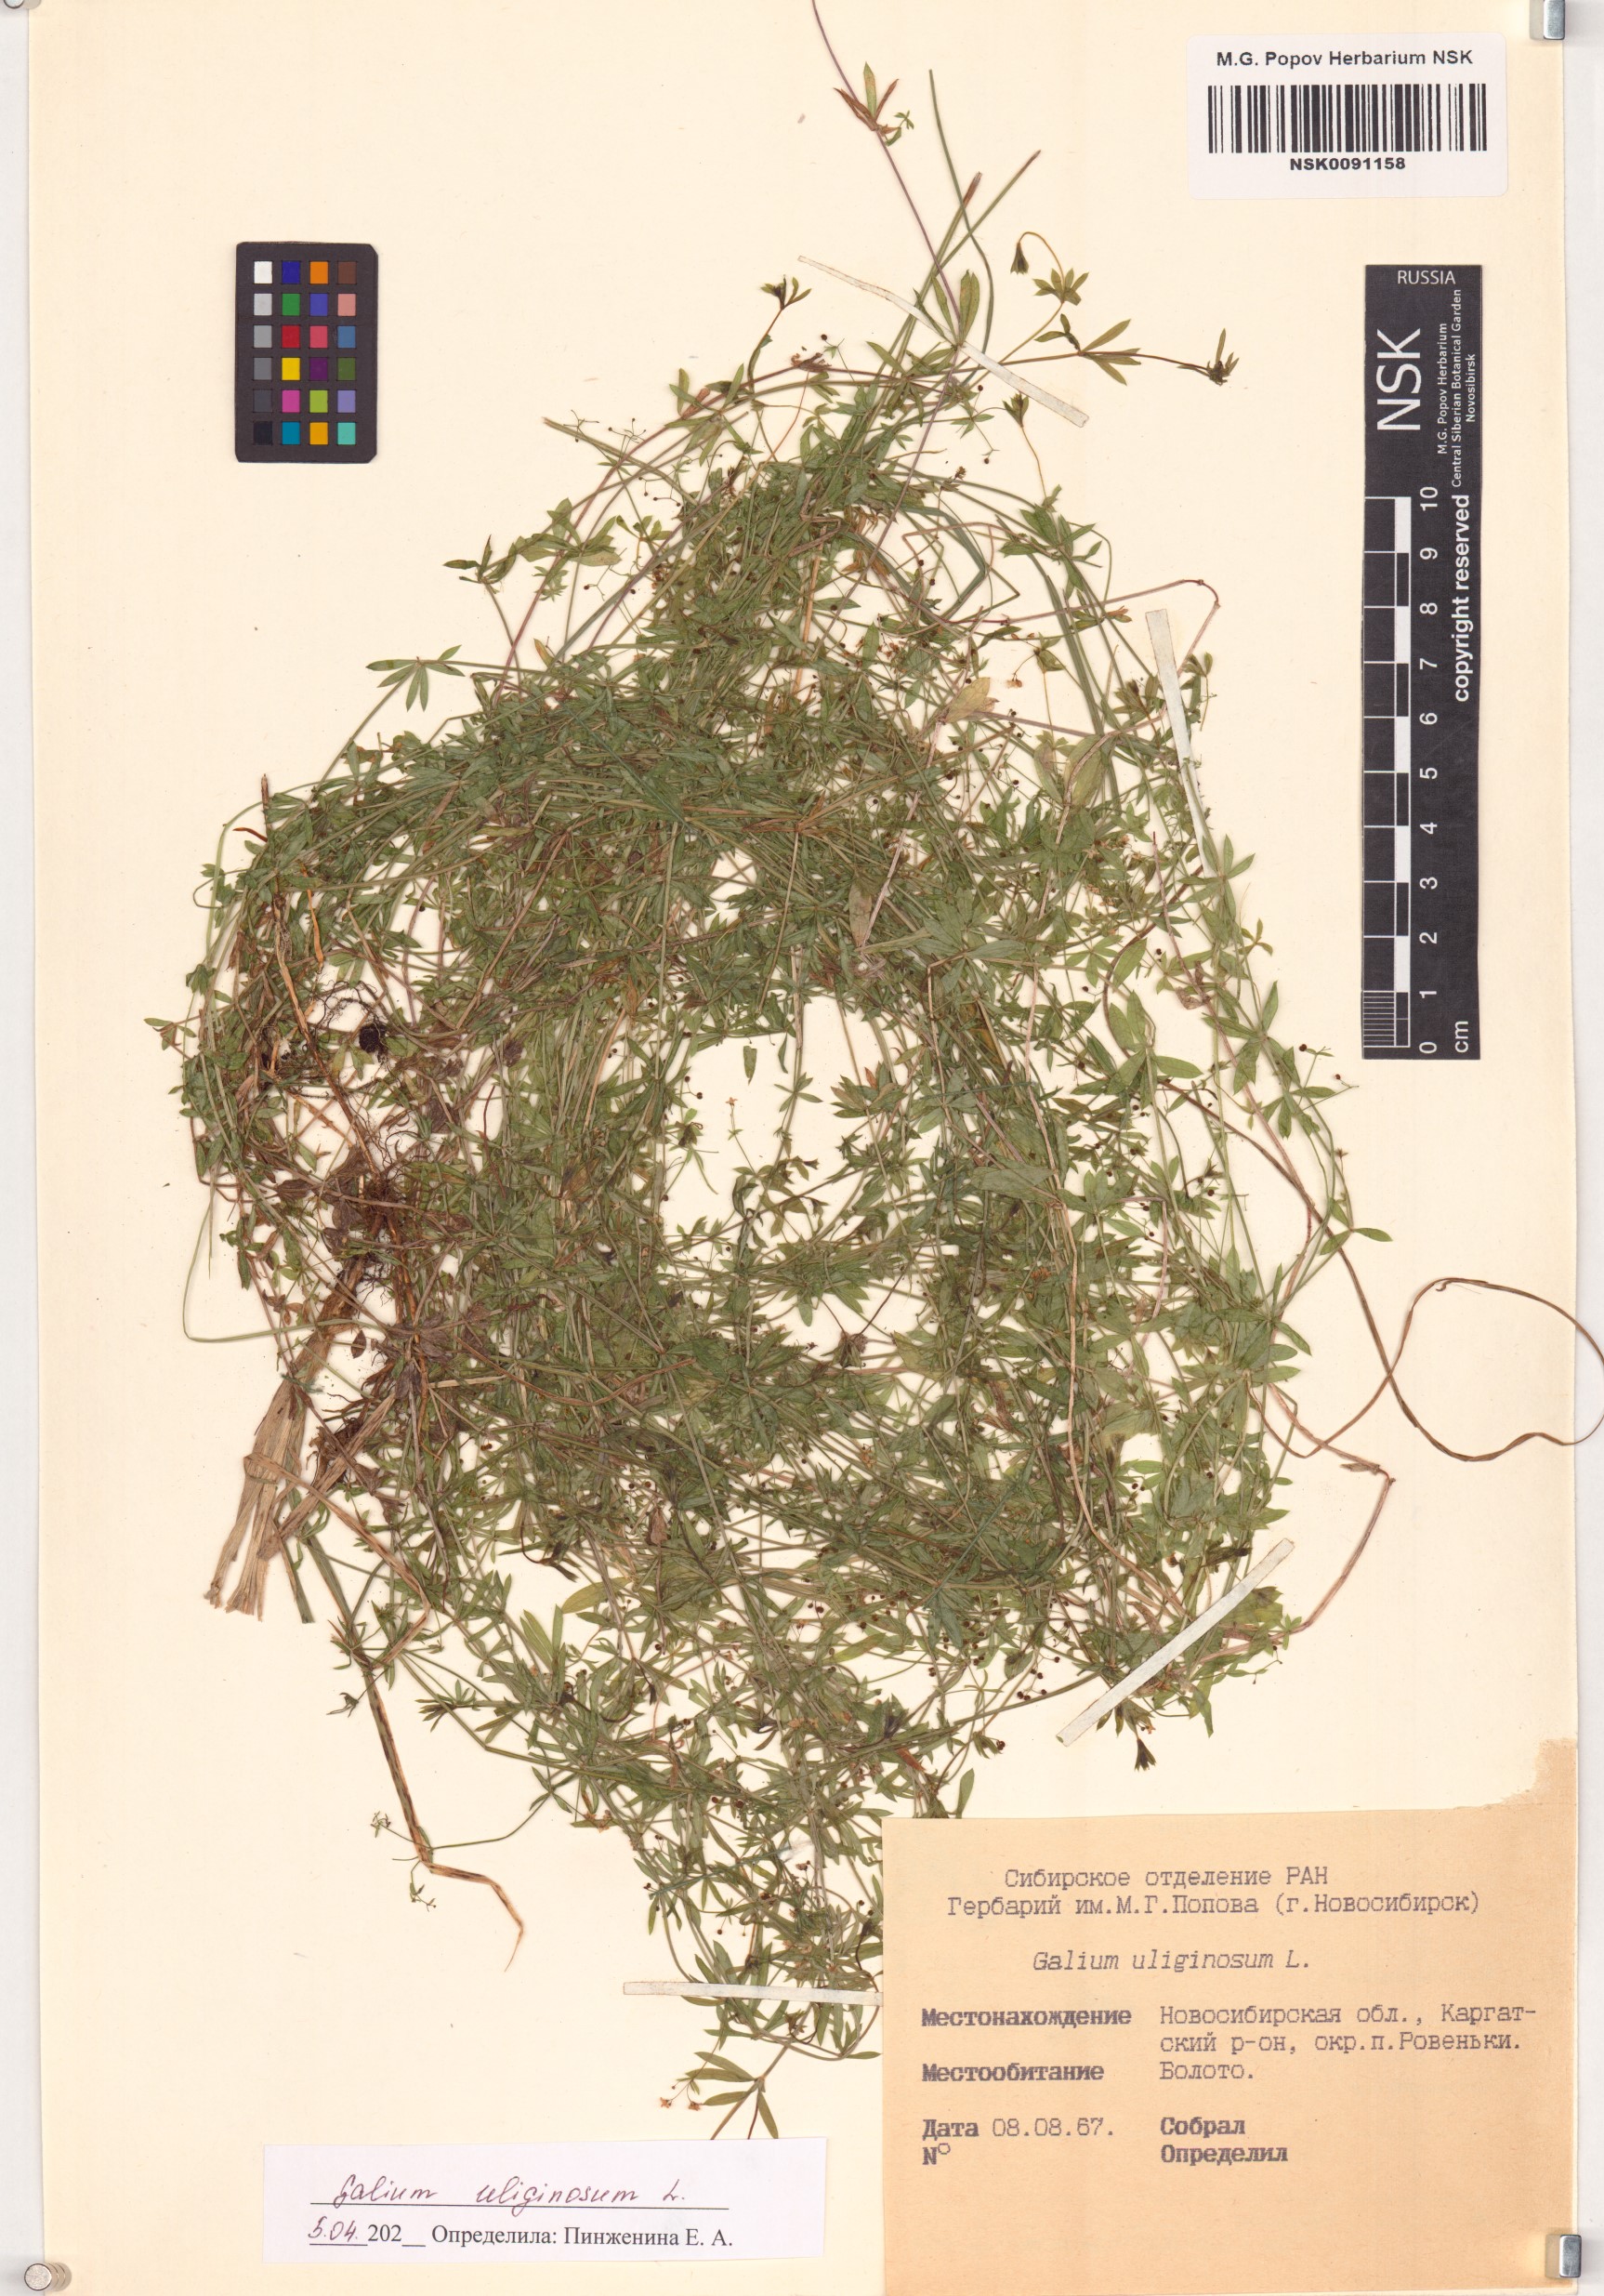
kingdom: Plantae
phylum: Tracheophyta
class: Magnoliopsida
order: Gentianales
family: Rubiaceae
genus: Galium
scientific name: Galium uliginosum
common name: Fen bedstraw
